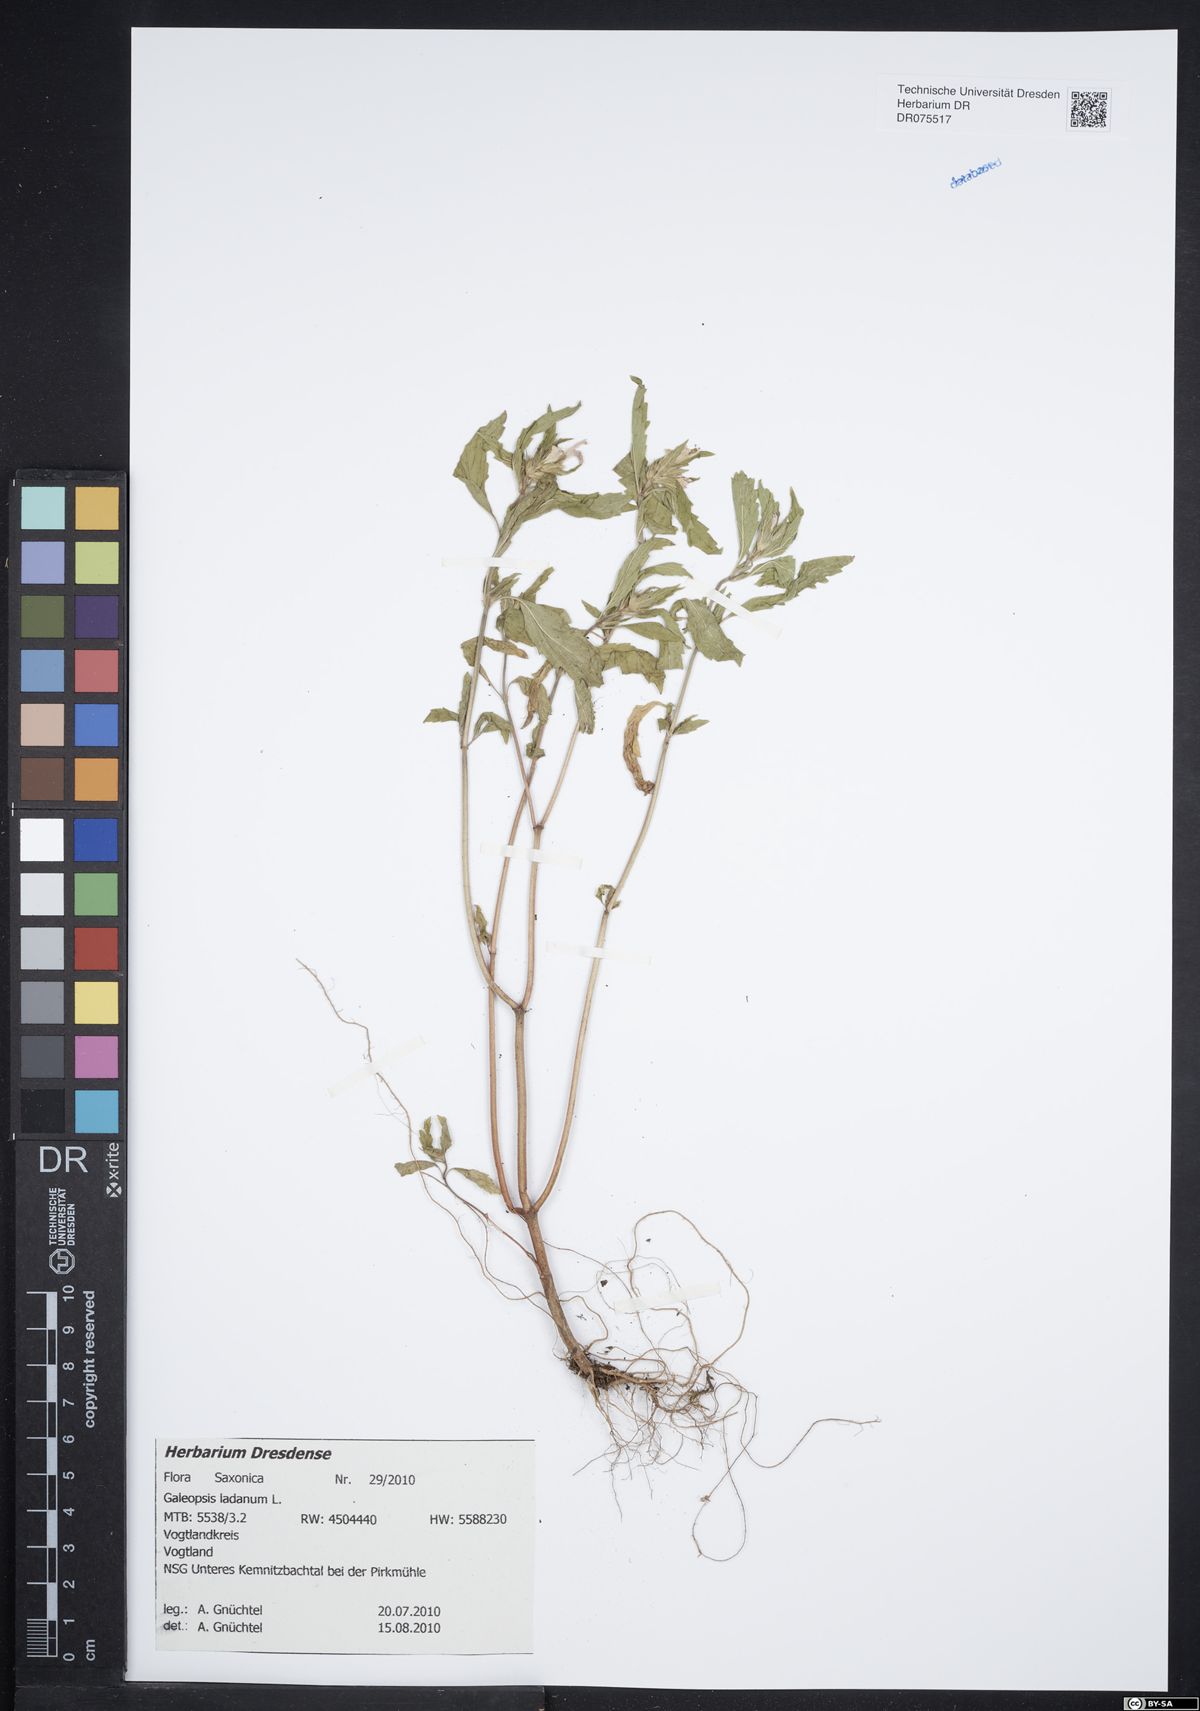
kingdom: Plantae
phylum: Tracheophyta
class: Magnoliopsida
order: Lamiales
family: Lamiaceae
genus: Galeopsis
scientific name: Galeopsis ladanum
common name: Broad-leaved hemp-nettle
